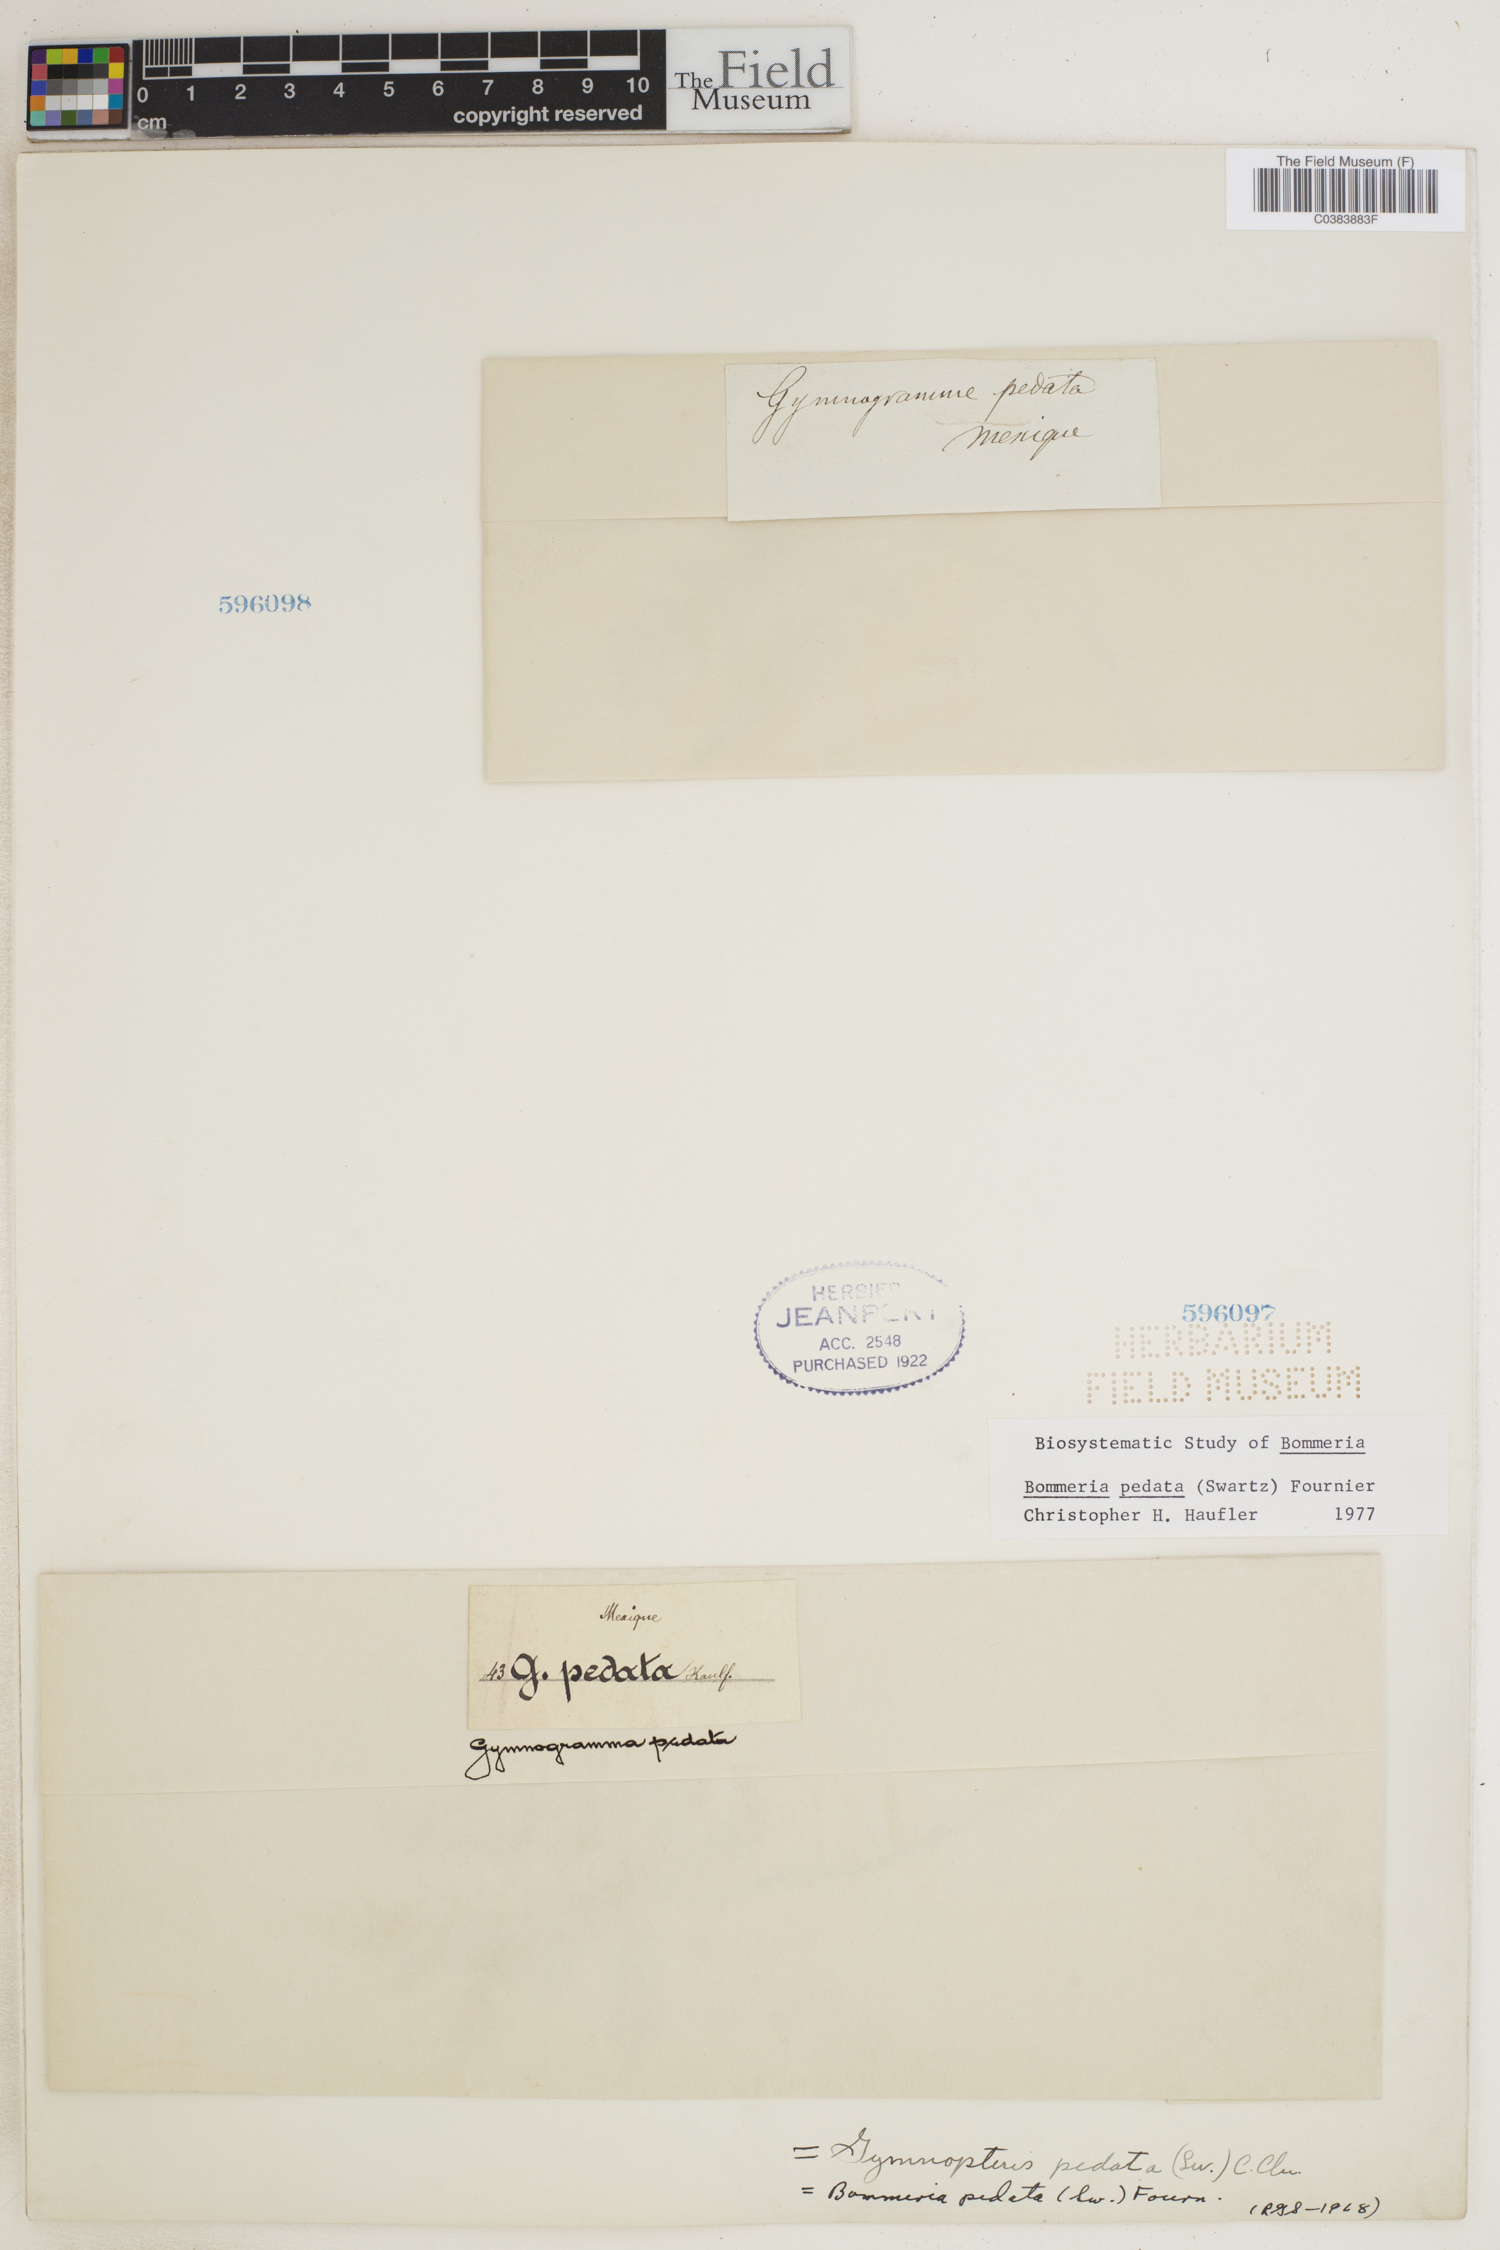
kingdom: Plantae
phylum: Tracheophyta
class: Polypodiopsida
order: Polypodiales
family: Pteridaceae
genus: Bommeria
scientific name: Bommeria pedata
